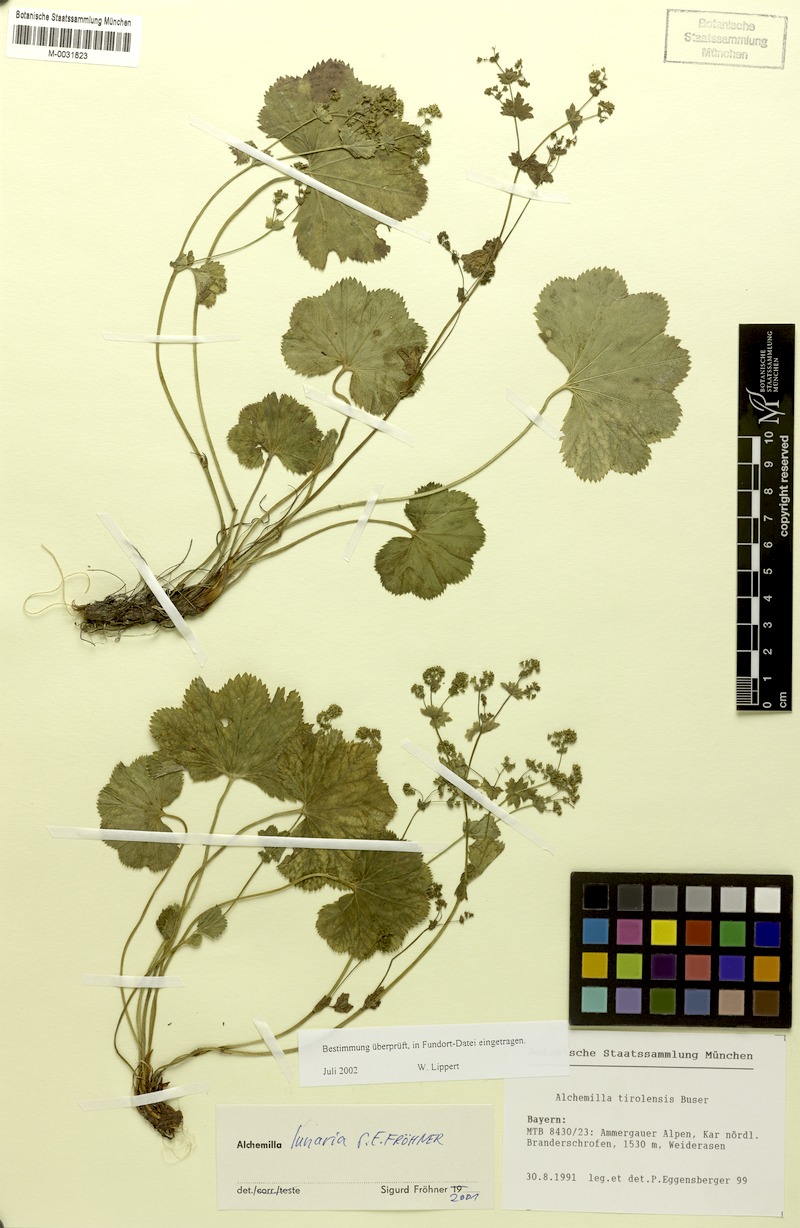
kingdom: Plantae
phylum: Tracheophyta
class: Magnoliopsida
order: Rosales
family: Rosaceae
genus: Alchemilla
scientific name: Alchemilla lunaria
